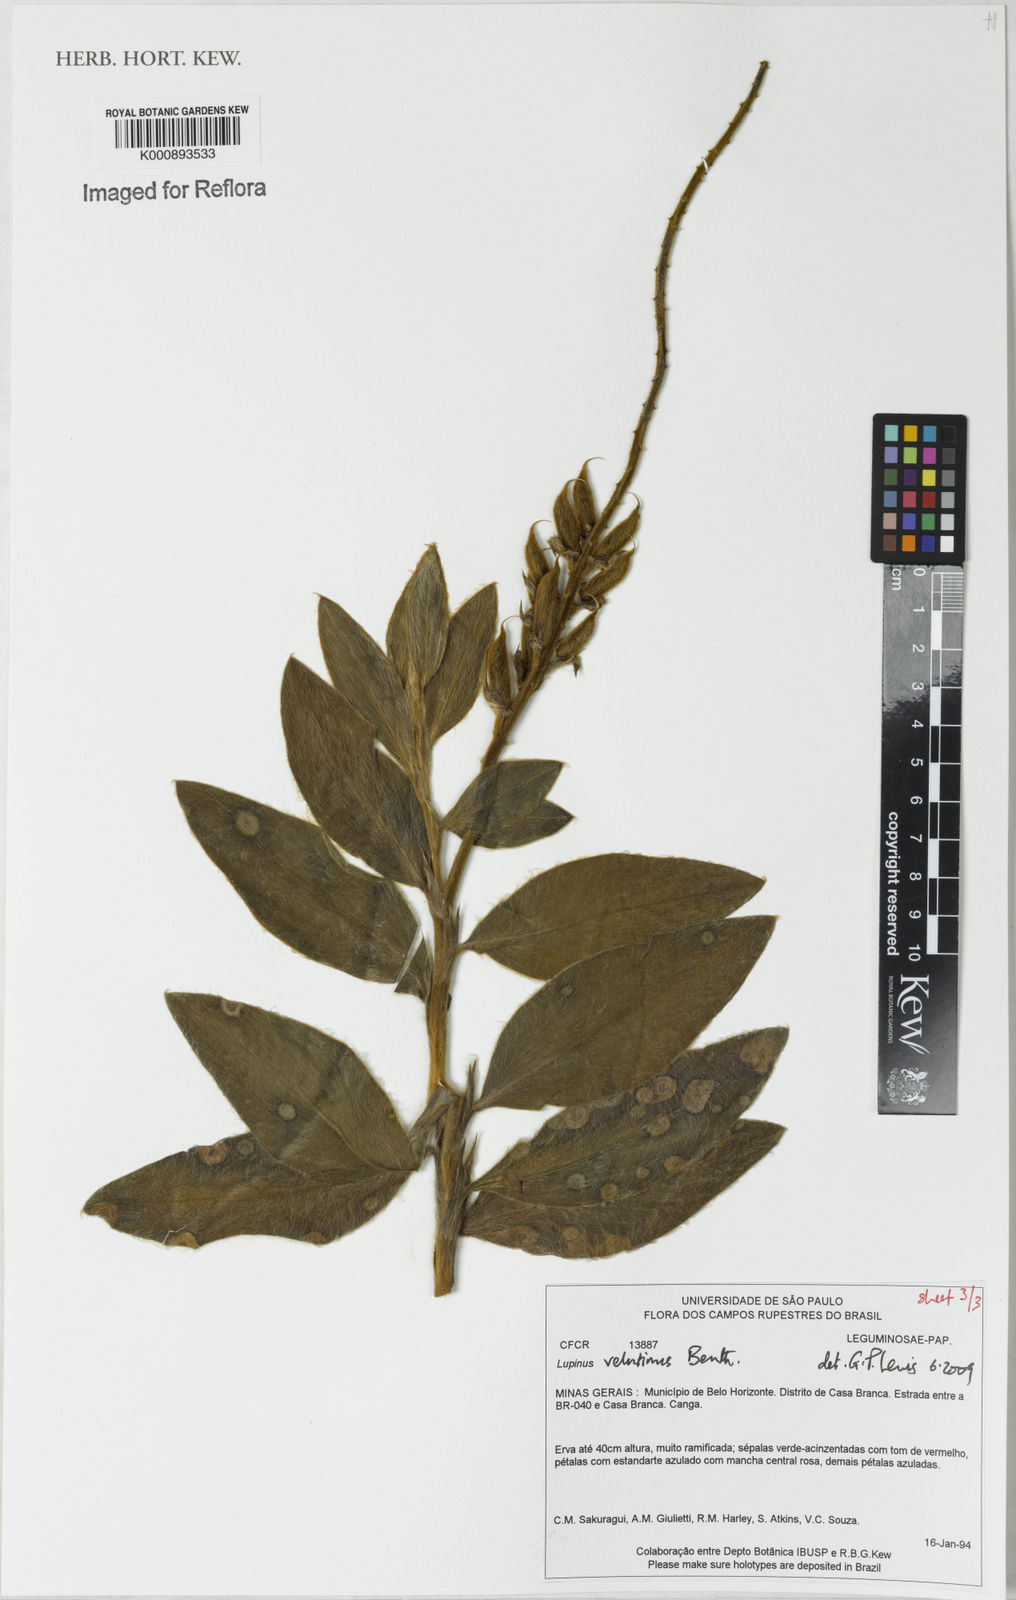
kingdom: Plantae
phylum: Tracheophyta
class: Magnoliopsida
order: Fabales
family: Fabaceae
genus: Lupinus
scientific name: Lupinus velutinus
